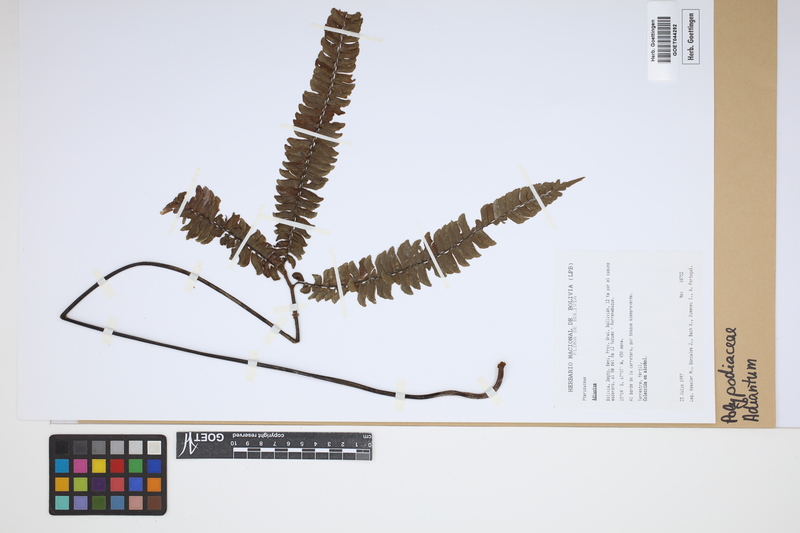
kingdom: Plantae
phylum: Tracheophyta
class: Polypodiopsida
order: Polypodiales
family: Pteridaceae
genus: Adiantum
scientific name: Adiantum
